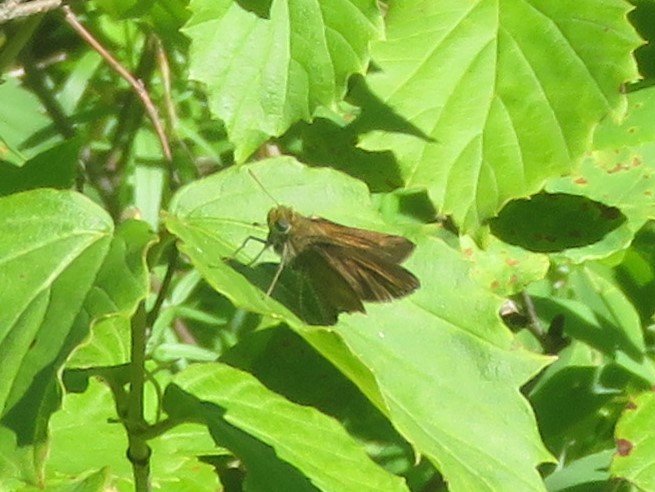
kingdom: Animalia
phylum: Arthropoda
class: Insecta
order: Lepidoptera
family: Hesperiidae
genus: Euphyes
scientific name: Euphyes vestris
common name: Dun Skipper
